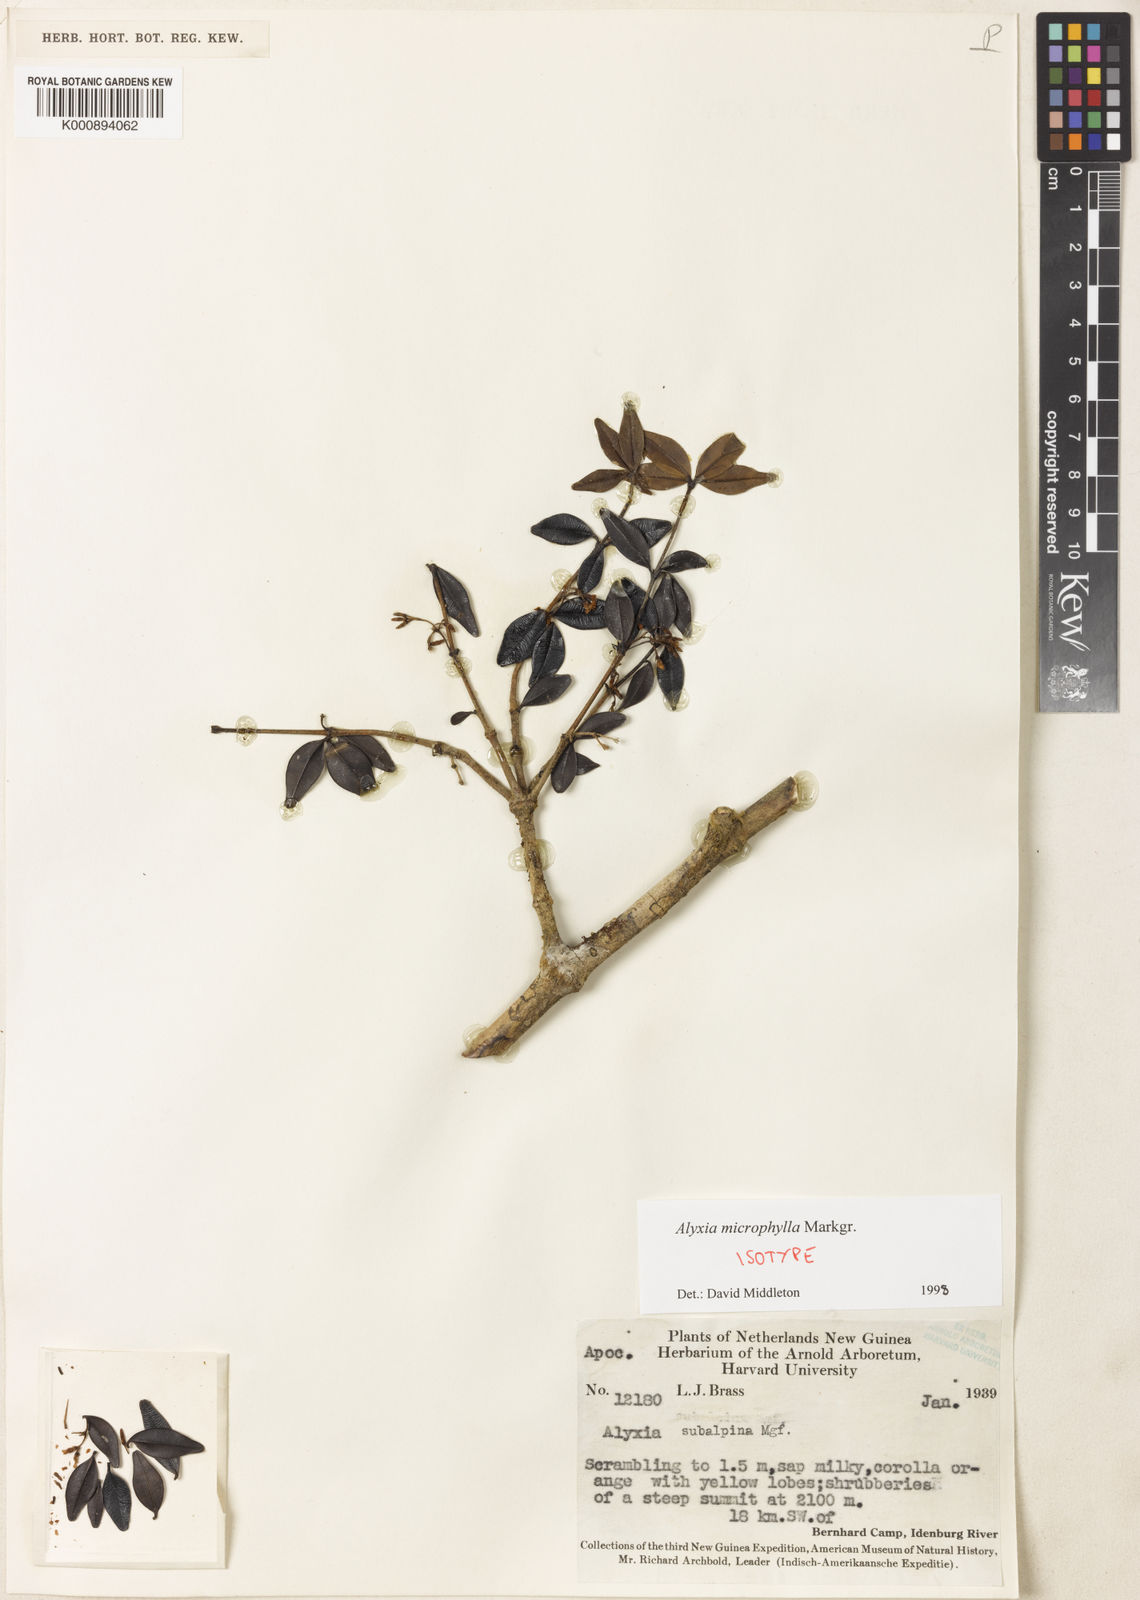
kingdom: Plantae
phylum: Tracheophyta
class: Magnoliopsida
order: Gentianales
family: Apocynaceae
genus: Alyxia
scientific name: Alyxia microphylla
